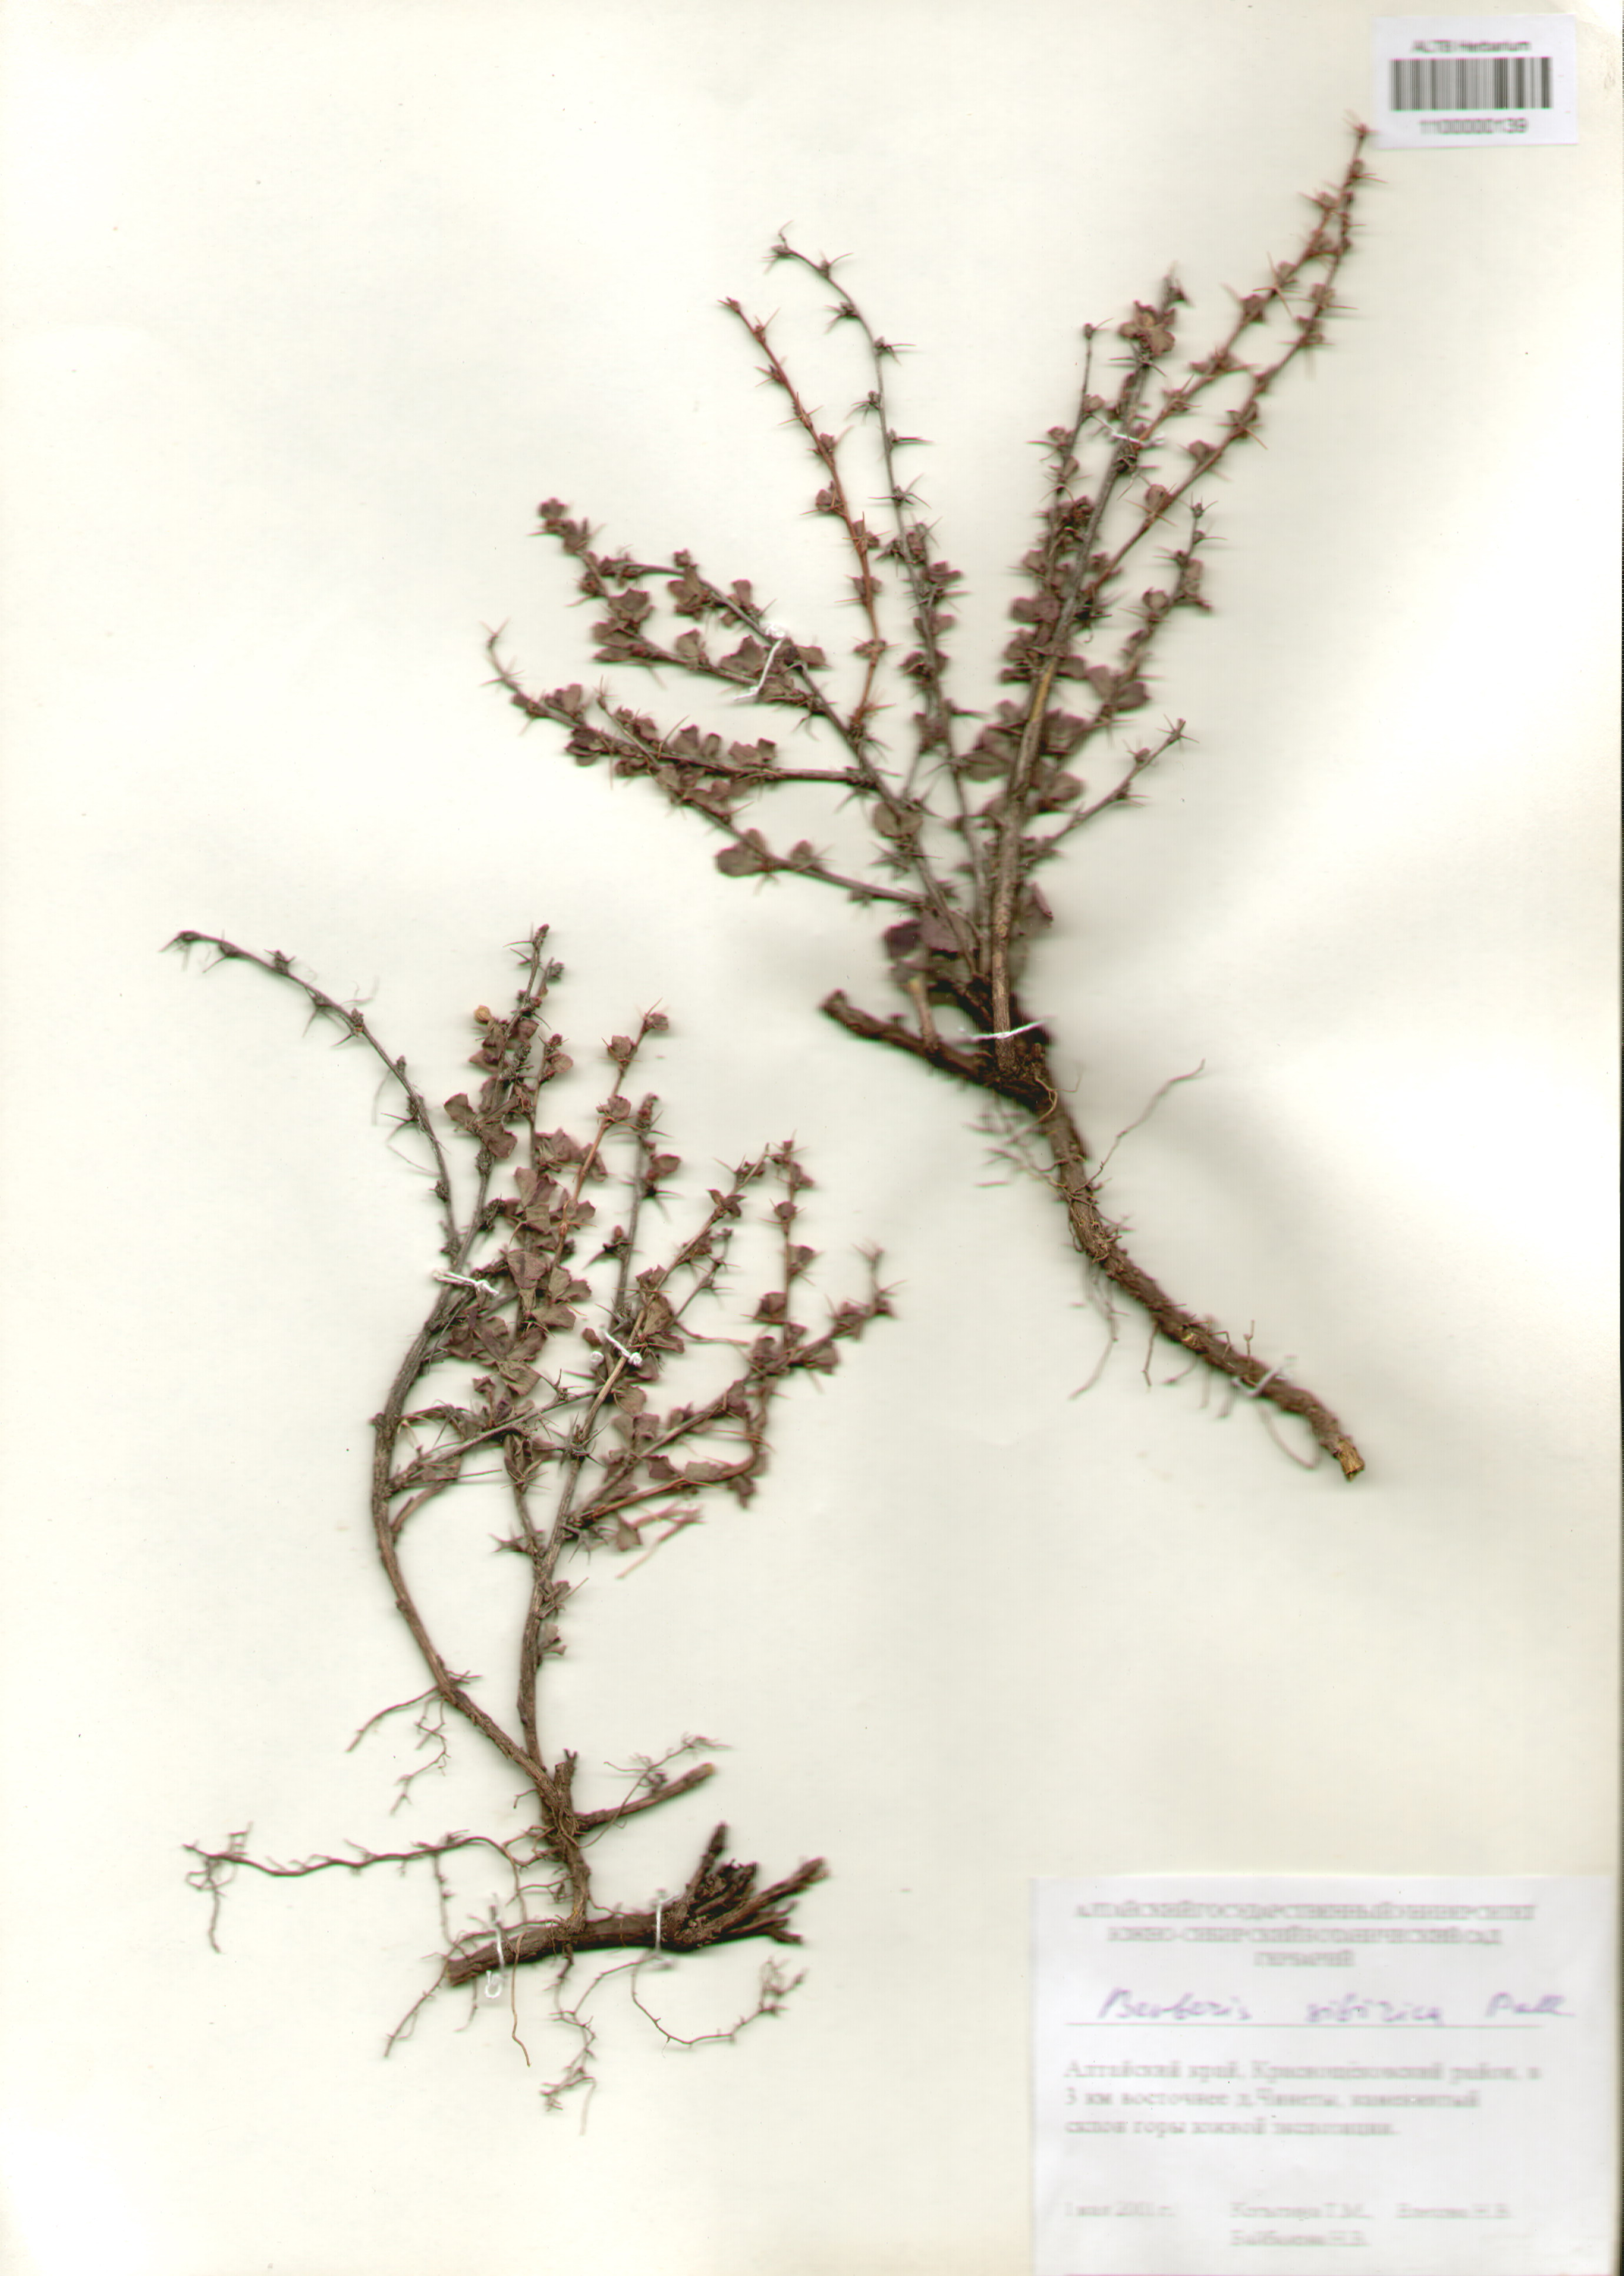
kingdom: Plantae
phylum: Tracheophyta
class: Magnoliopsida
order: Ranunculales
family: Berberidaceae
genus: Berberis
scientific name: Berberis sibirica
